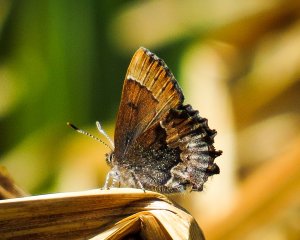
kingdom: Animalia
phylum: Arthropoda
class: Insecta
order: Lepidoptera
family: Lycaenidae
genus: Incisalia
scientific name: Incisalia henrici
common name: Henry's Elfin
